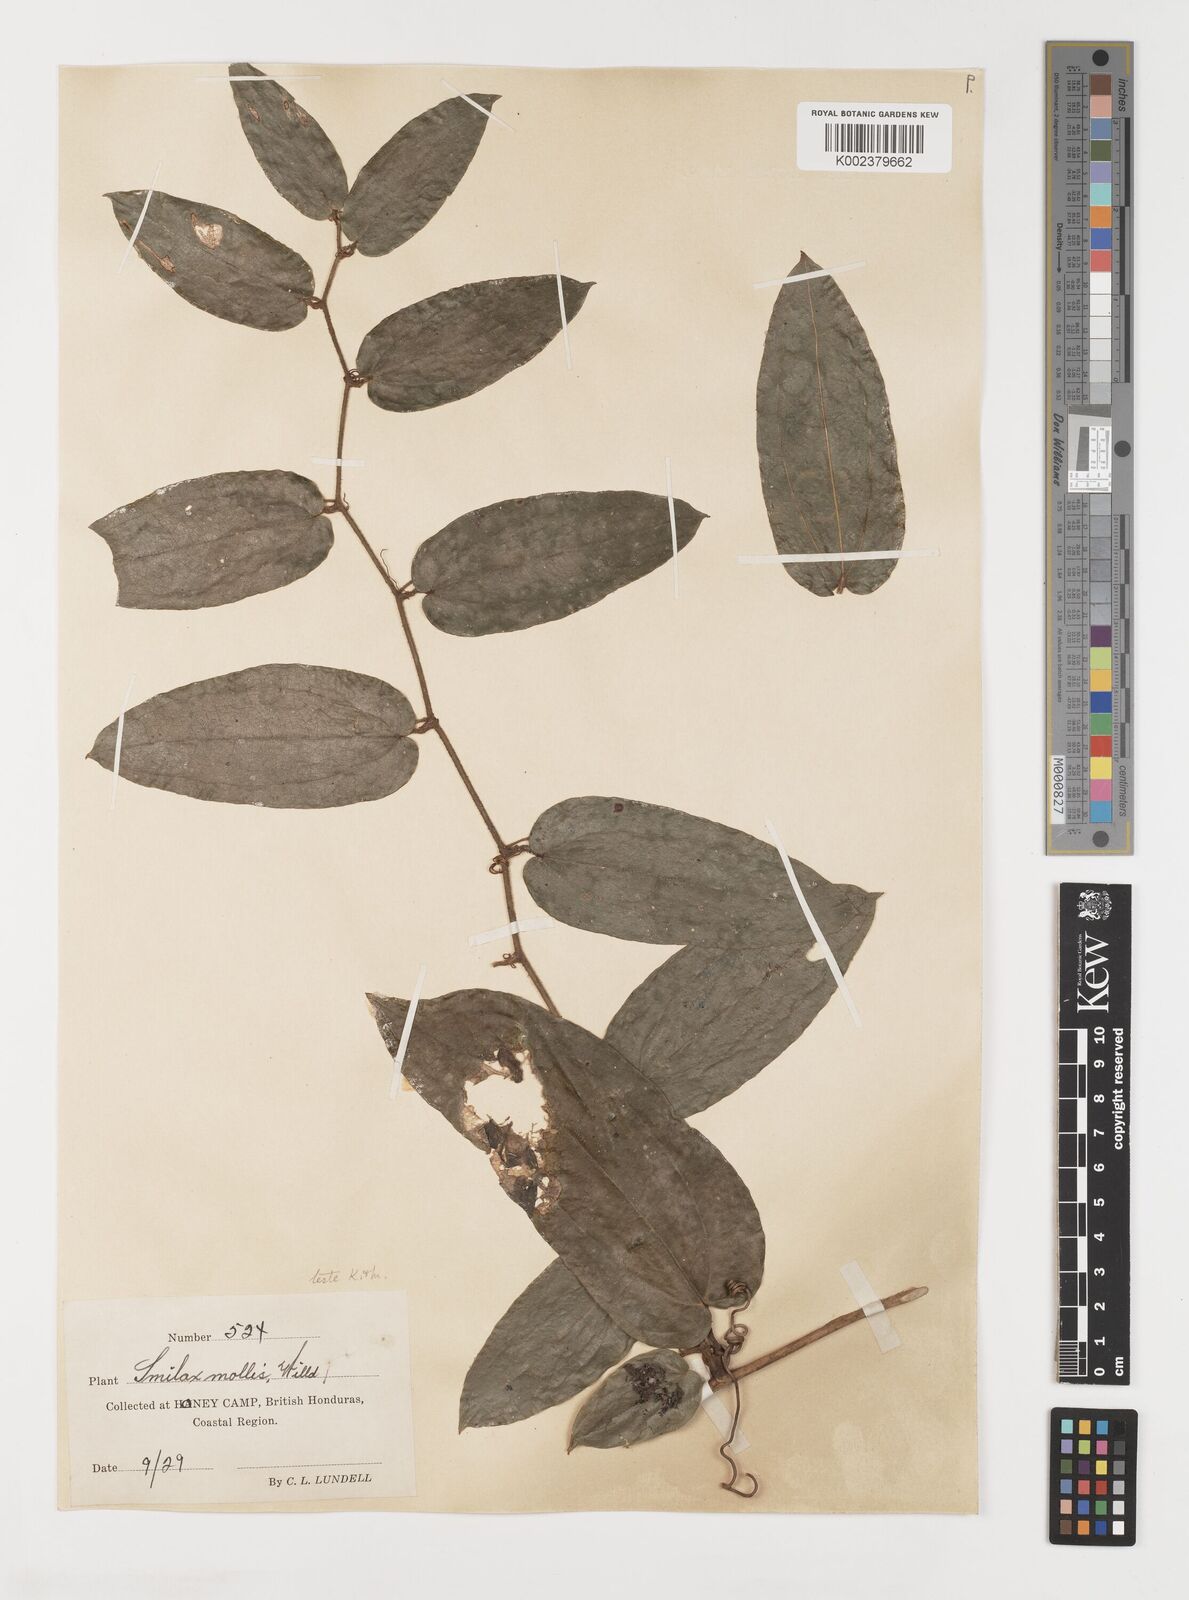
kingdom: Plantae
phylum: Tracheophyta
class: Liliopsida
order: Liliales
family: Smilacaceae
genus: Smilax
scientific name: Smilax mollis
